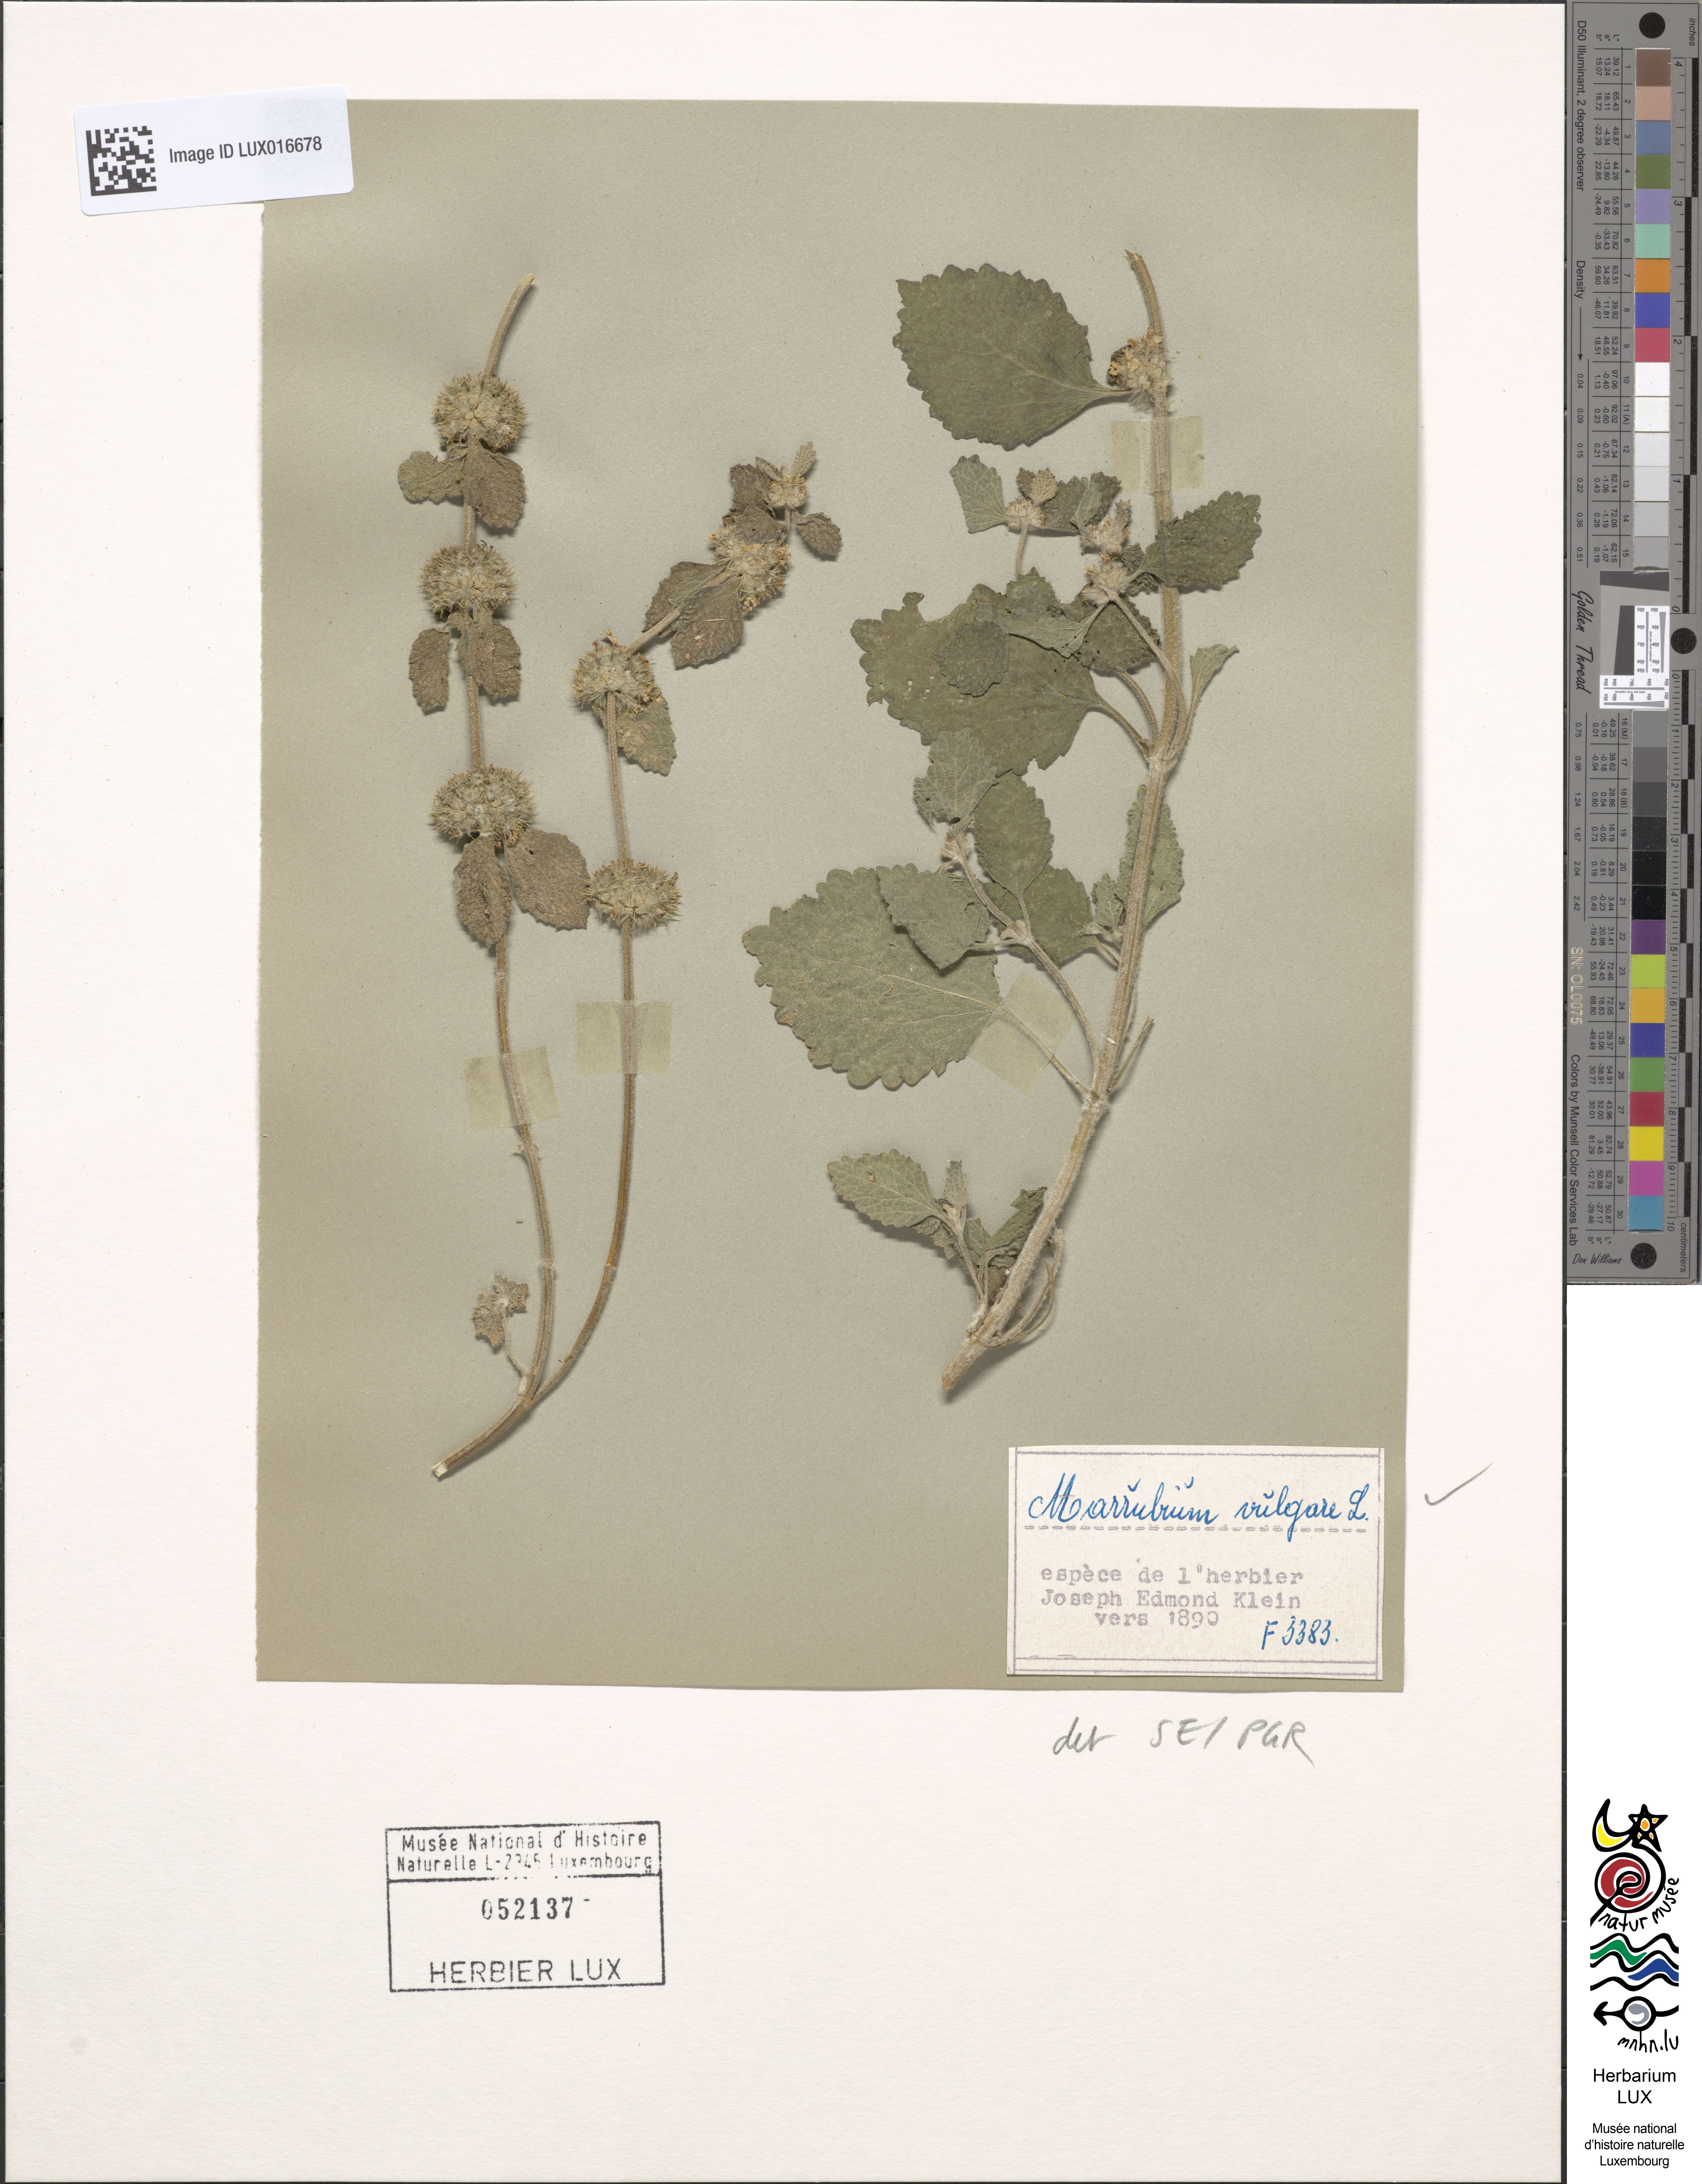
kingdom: Plantae
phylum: Tracheophyta
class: Magnoliopsida
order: Lamiales
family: Lamiaceae
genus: Marrubium
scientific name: Marrubium vulgare
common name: Horehound
